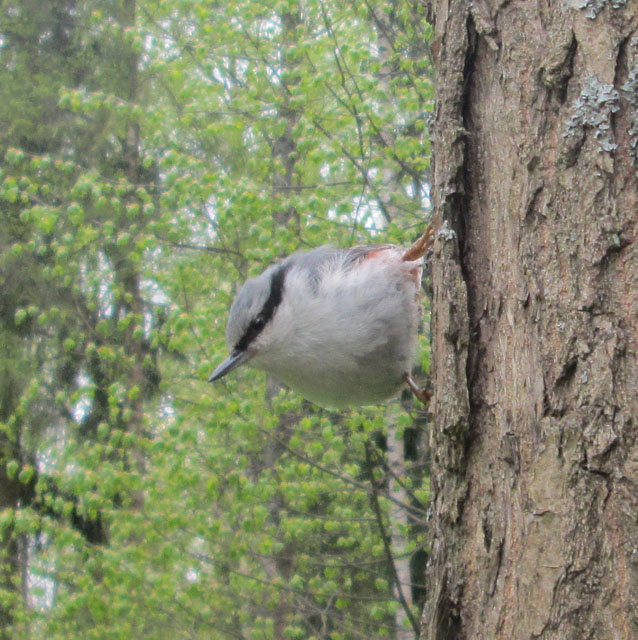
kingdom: Animalia
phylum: Chordata
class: Aves
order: Passeriformes
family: Sittidae
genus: Sitta
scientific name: Sitta europaea
